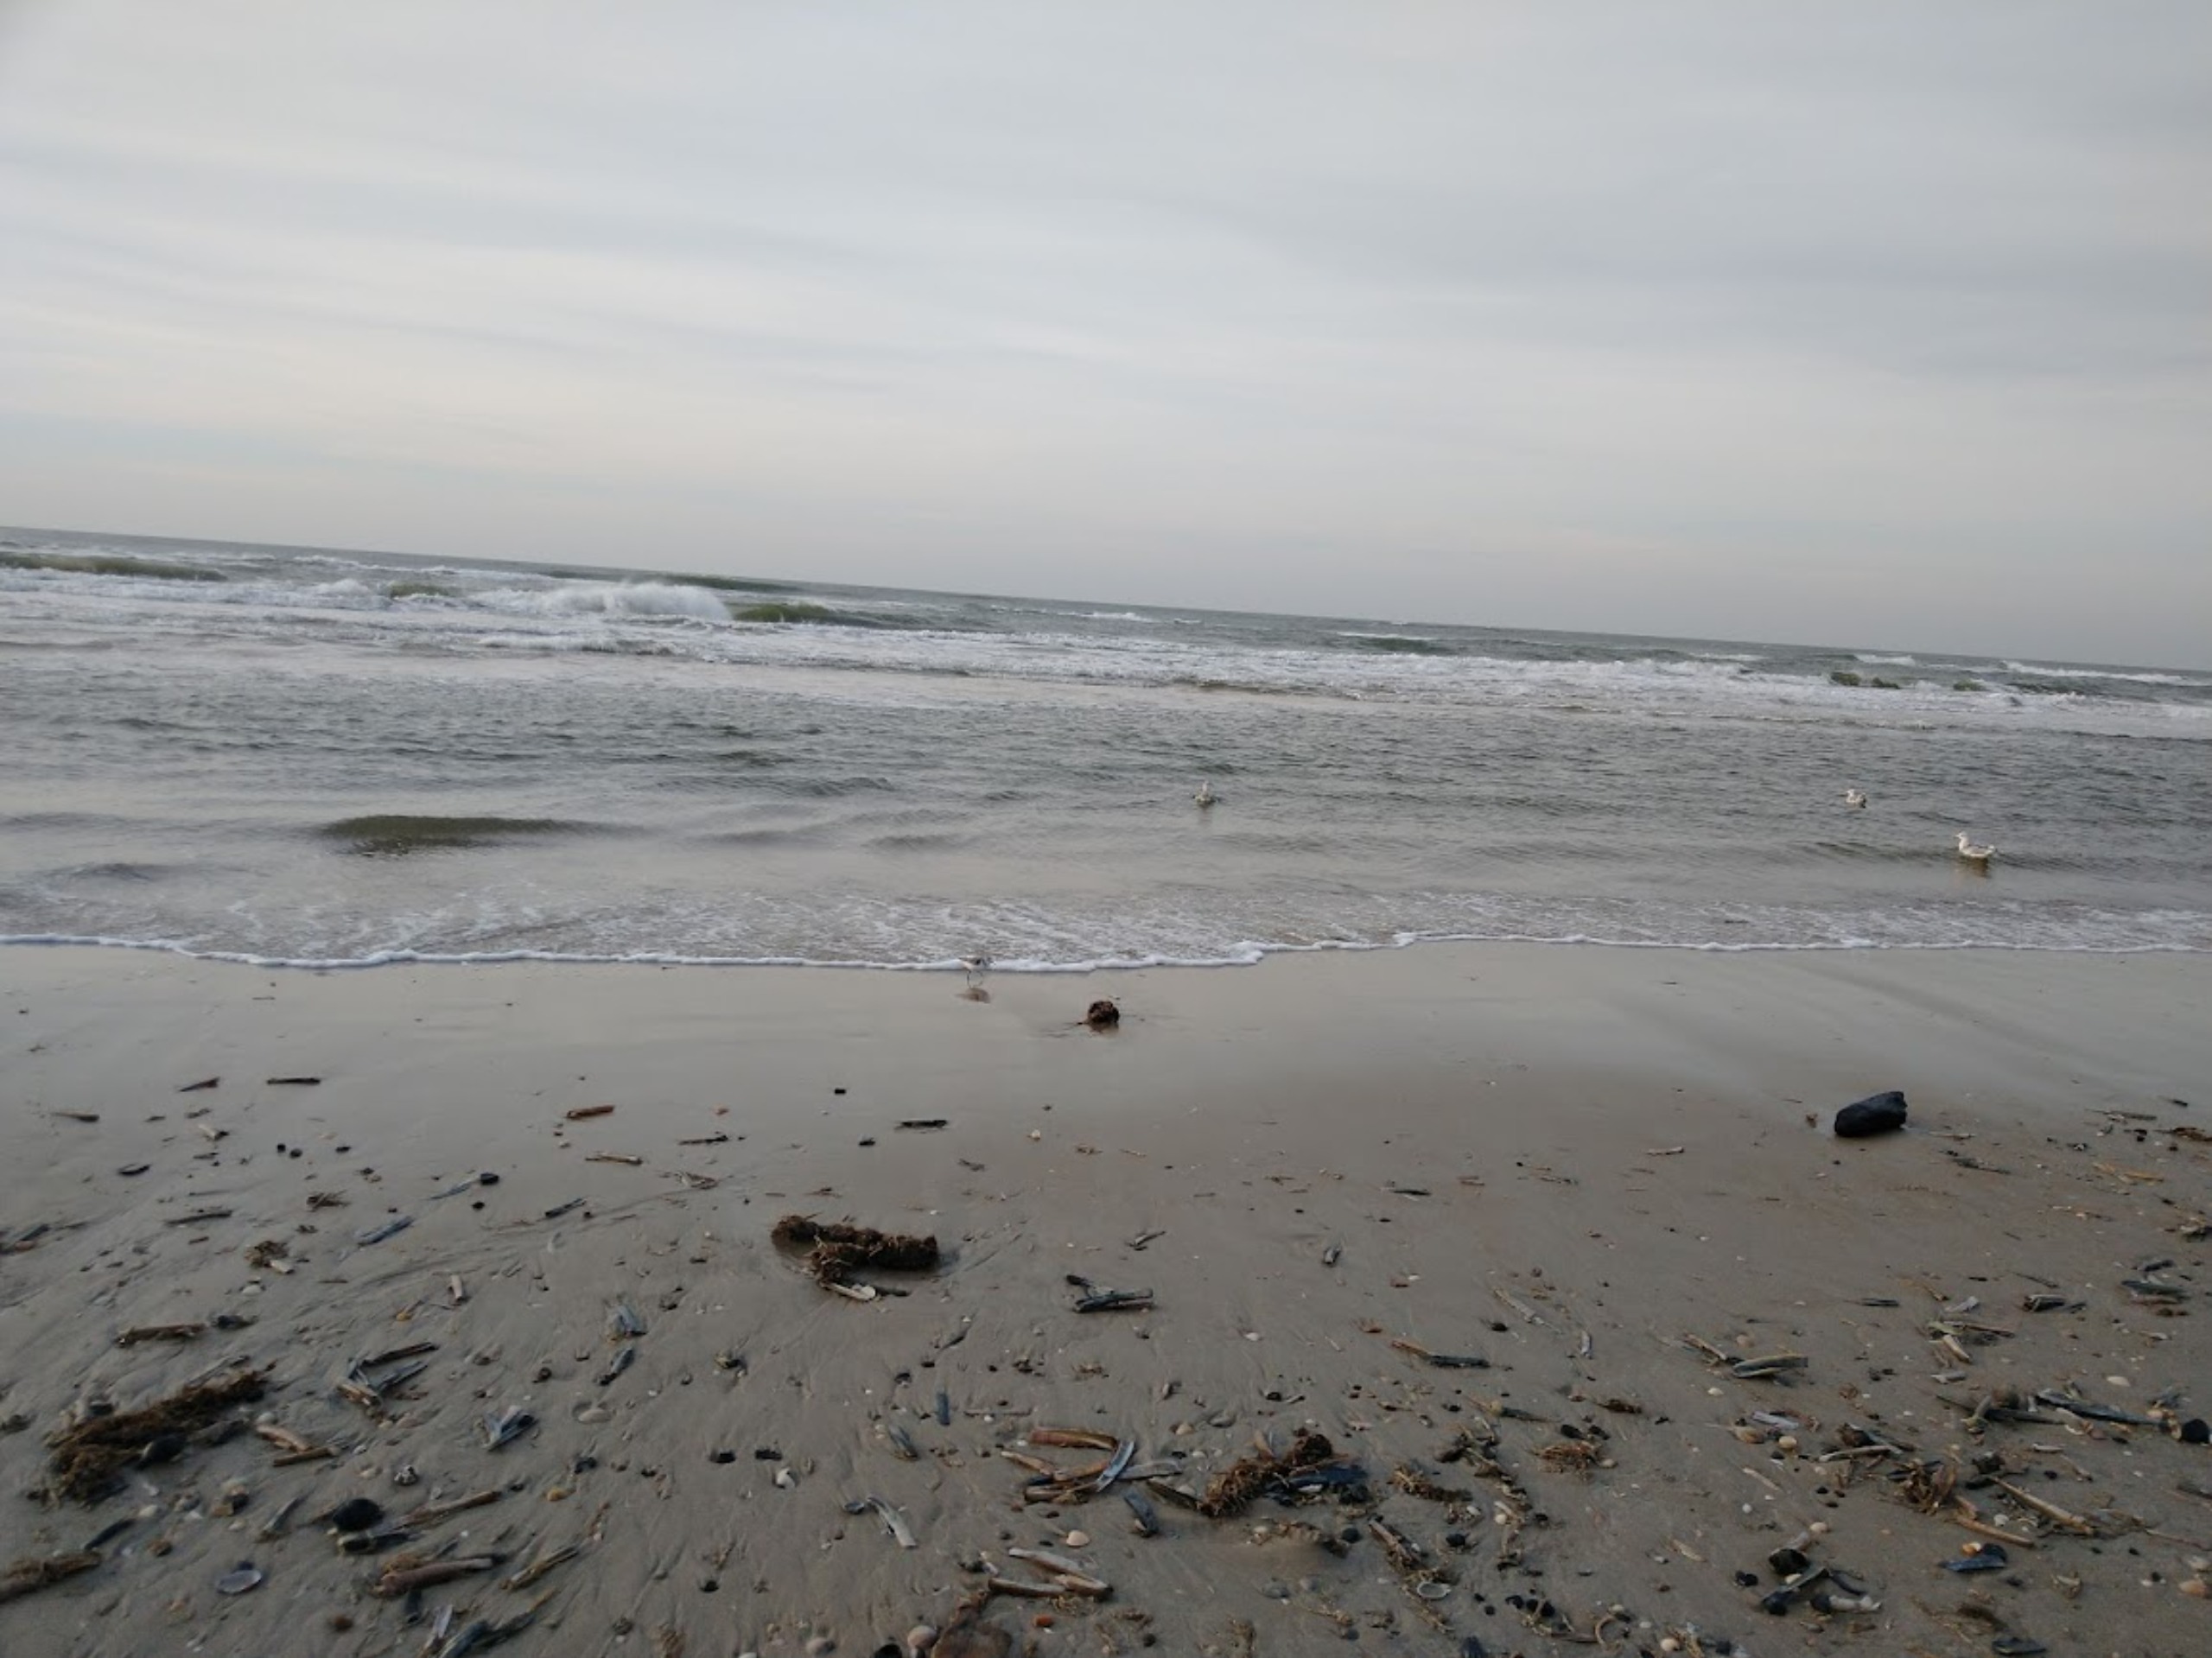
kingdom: Animalia
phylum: Chordata
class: Aves
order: Charadriiformes
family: Scolopacidae
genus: Calidris
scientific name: Calidris alba
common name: Sandløber
